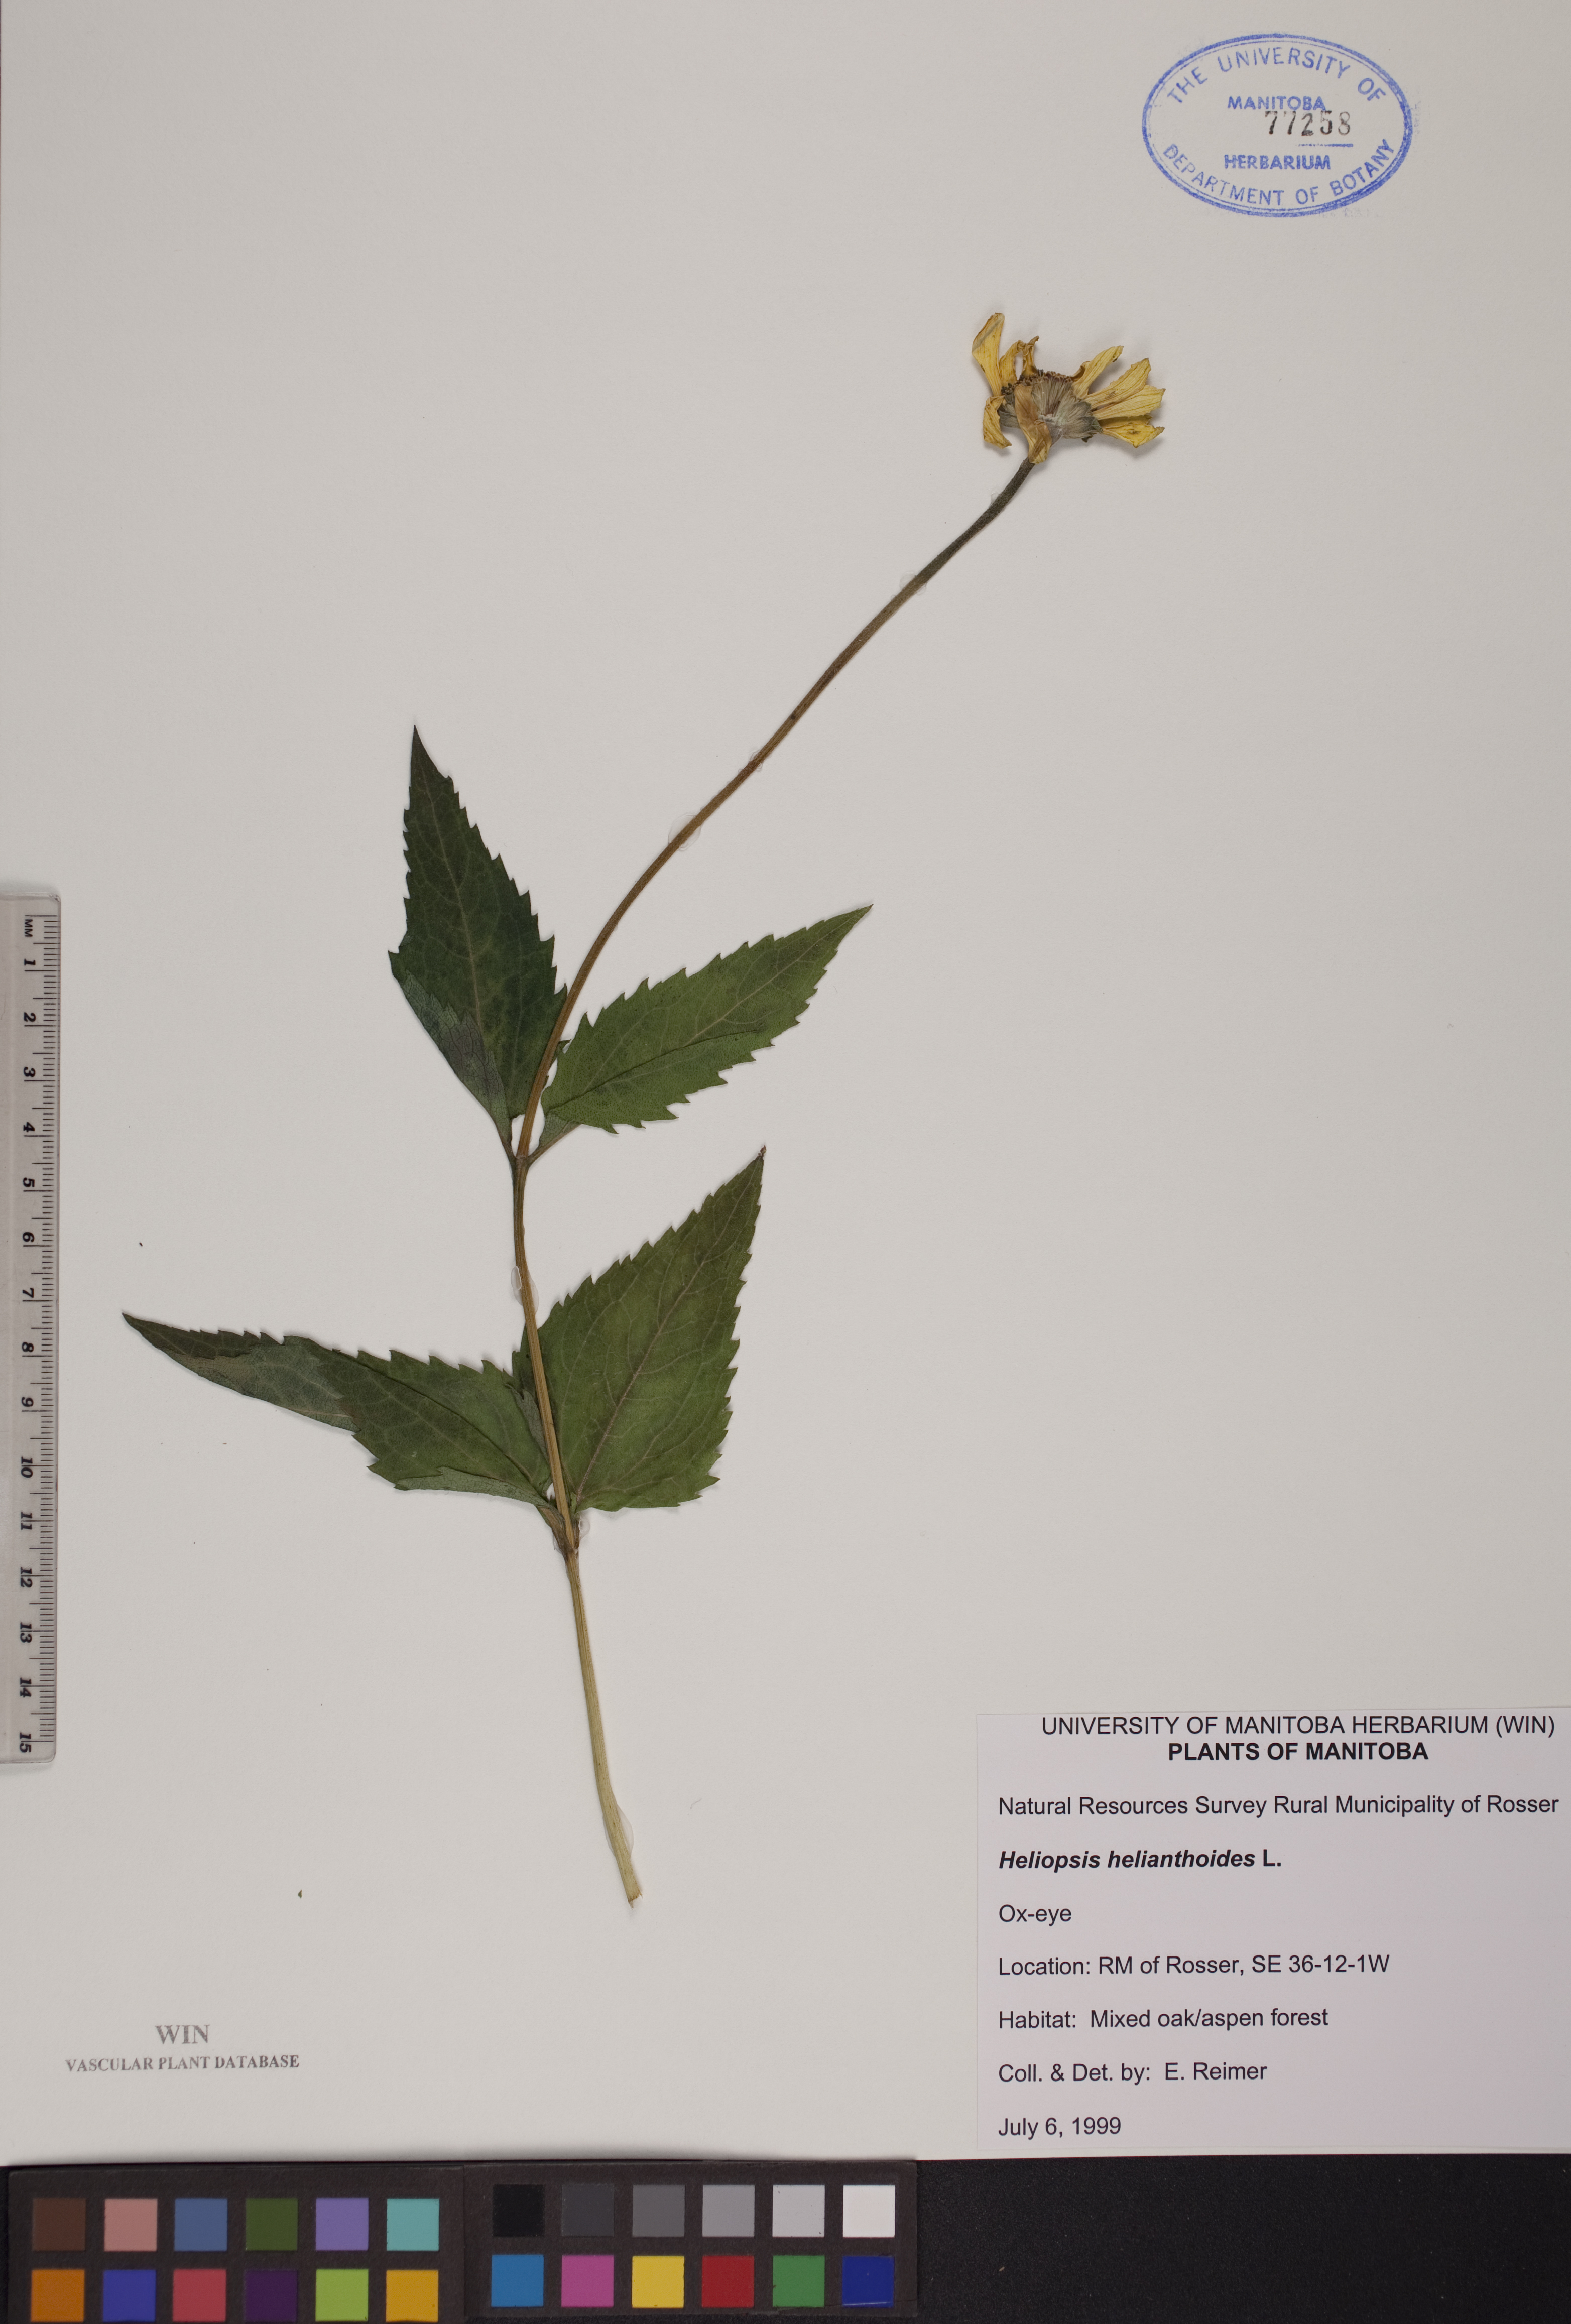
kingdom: Plantae
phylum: Tracheophyta
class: Magnoliopsida
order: Asterales
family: Asteraceae
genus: Heliopsis
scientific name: Heliopsis helianthoides
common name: False sunflower
